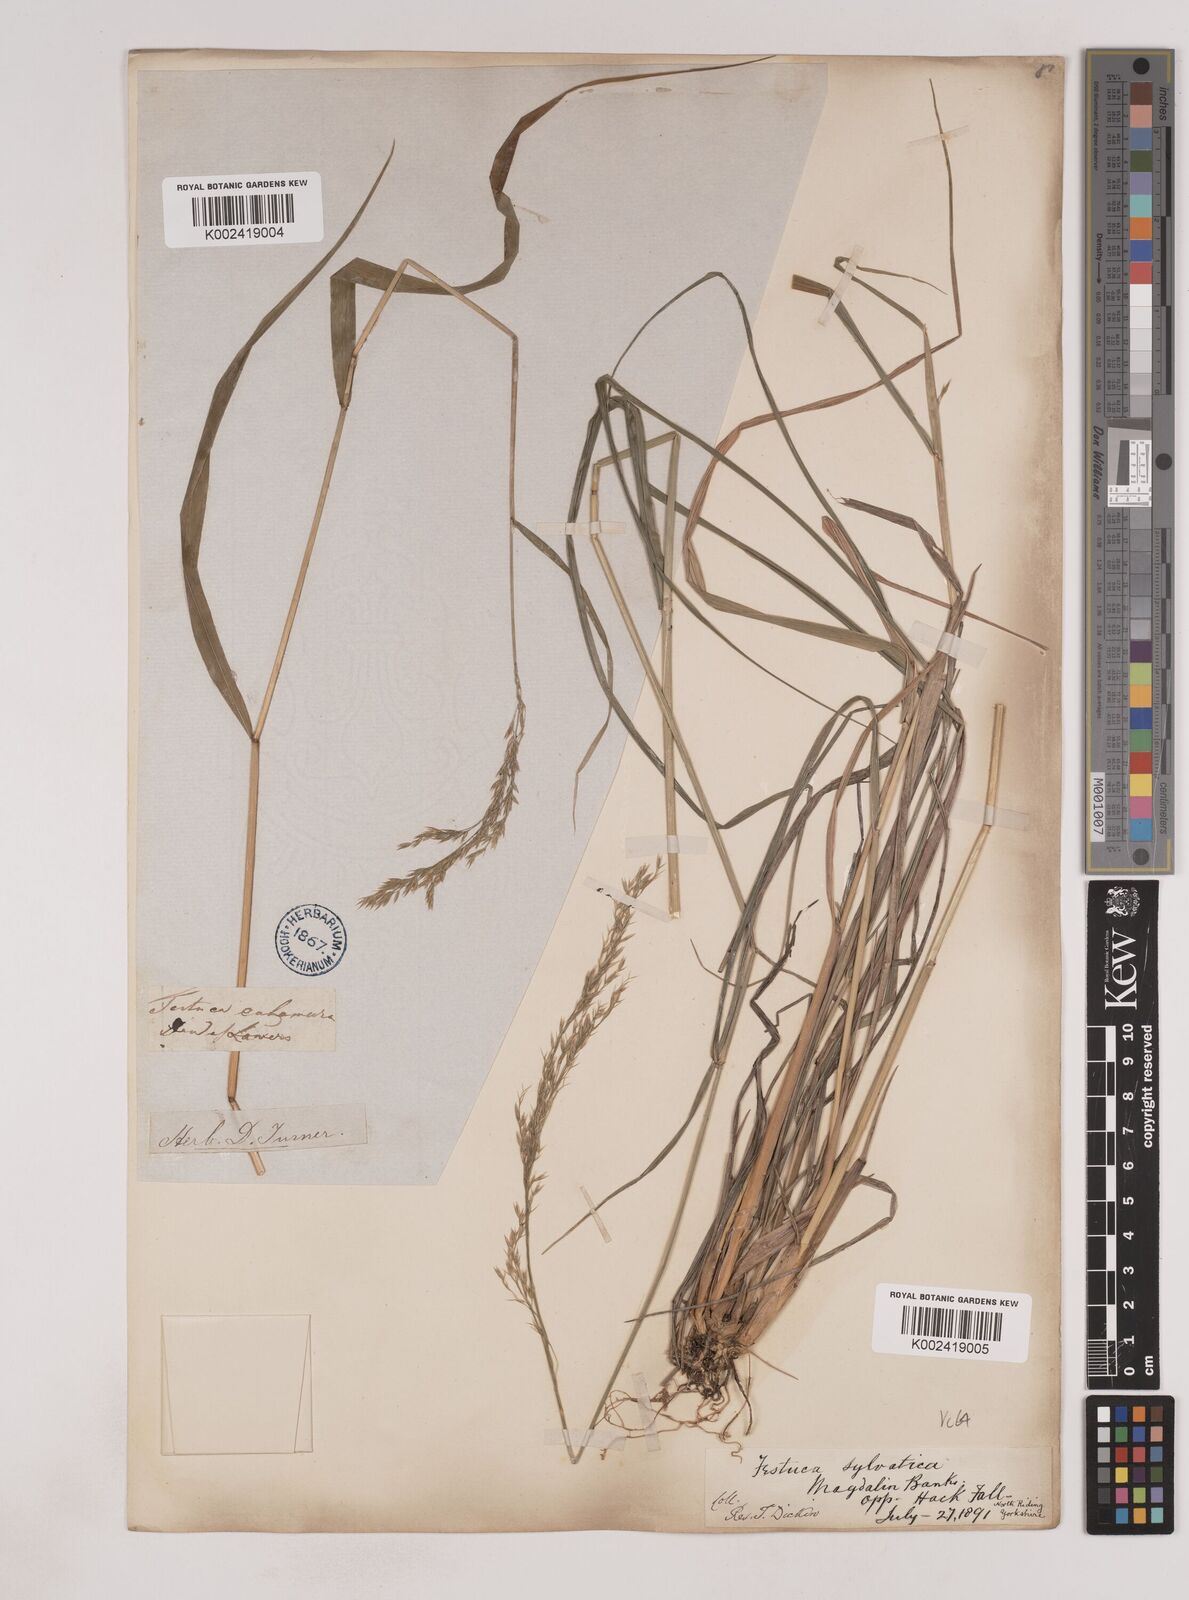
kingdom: Plantae
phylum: Tracheophyta
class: Liliopsida
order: Poales
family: Poaceae
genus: Festuca
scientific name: Festuca drymeja
